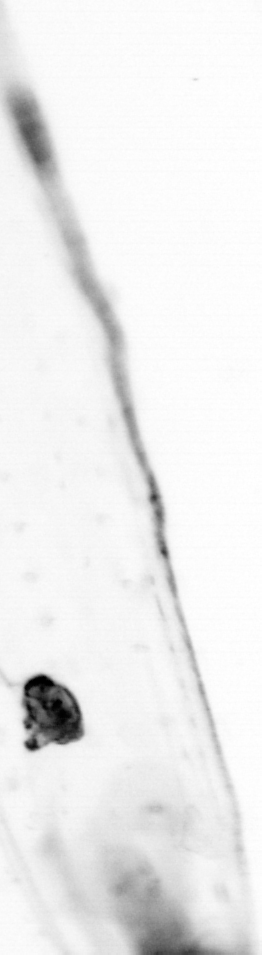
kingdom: Animalia
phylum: Chaetognatha
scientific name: Chaetognatha
